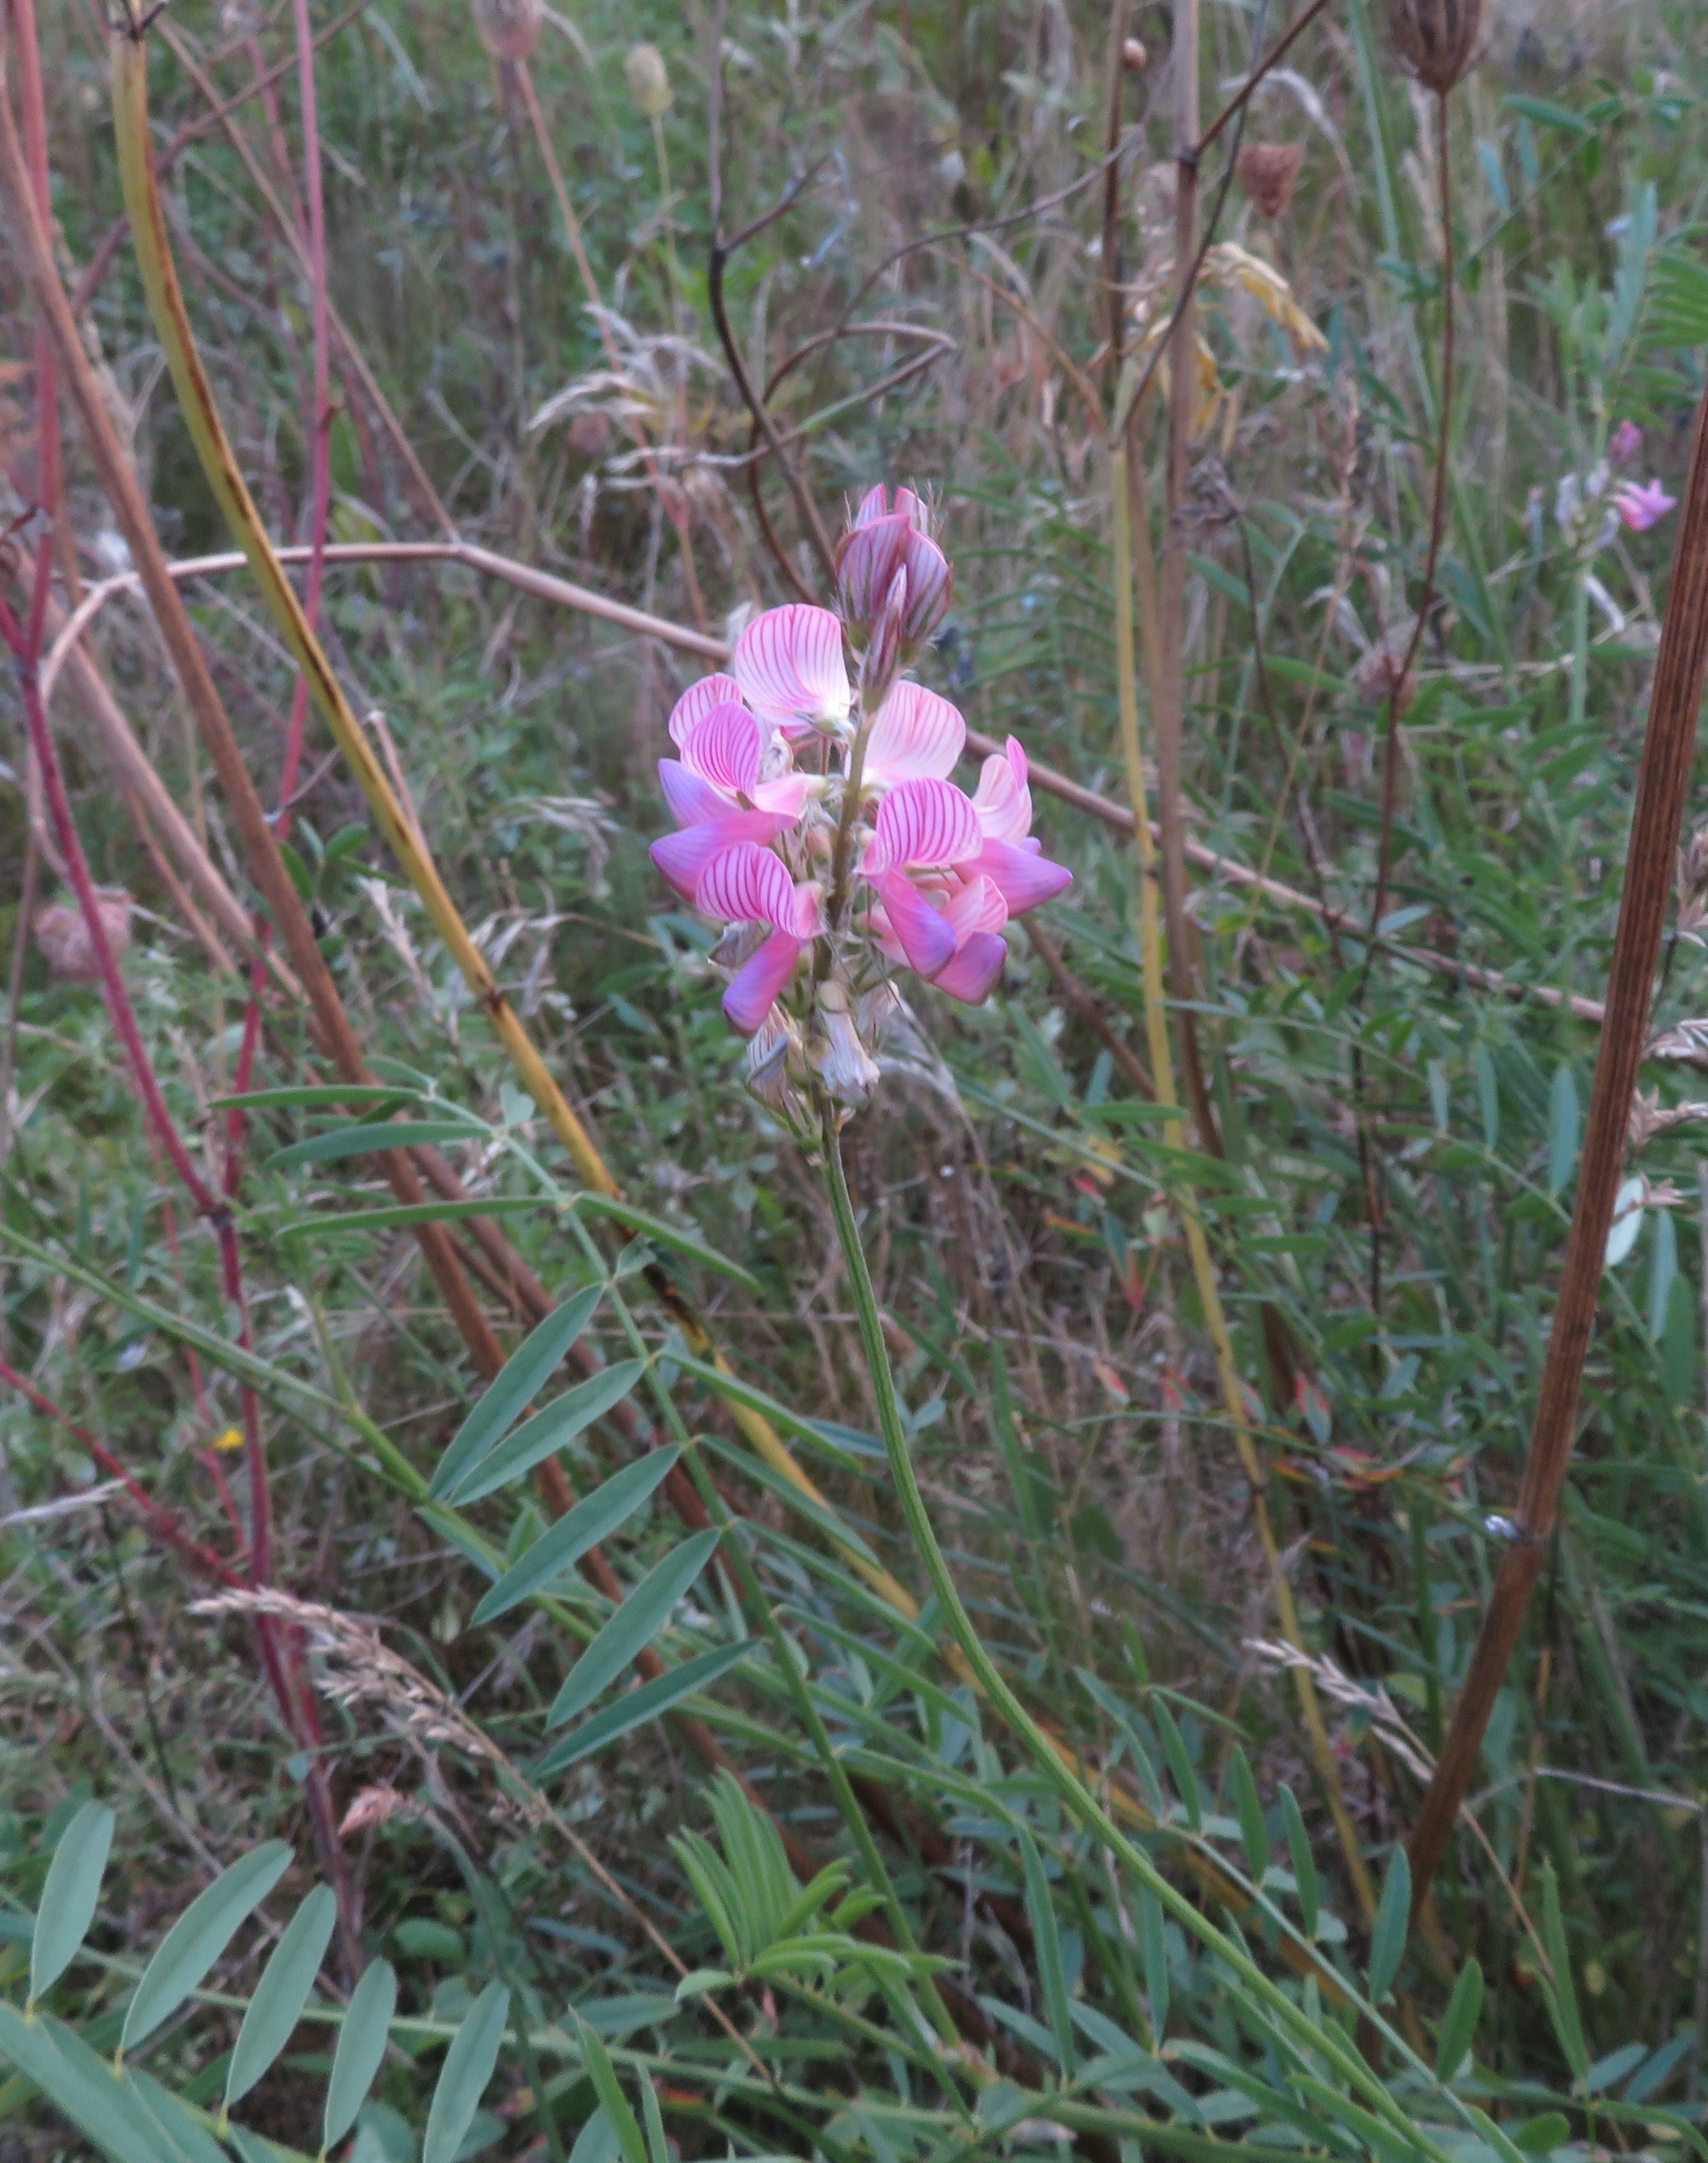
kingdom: Plantae
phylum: Tracheophyta
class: Magnoliopsida
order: Fabales
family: Fabaceae
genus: Onobrychis
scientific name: Onobrychis viciifolia
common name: Esparsette
